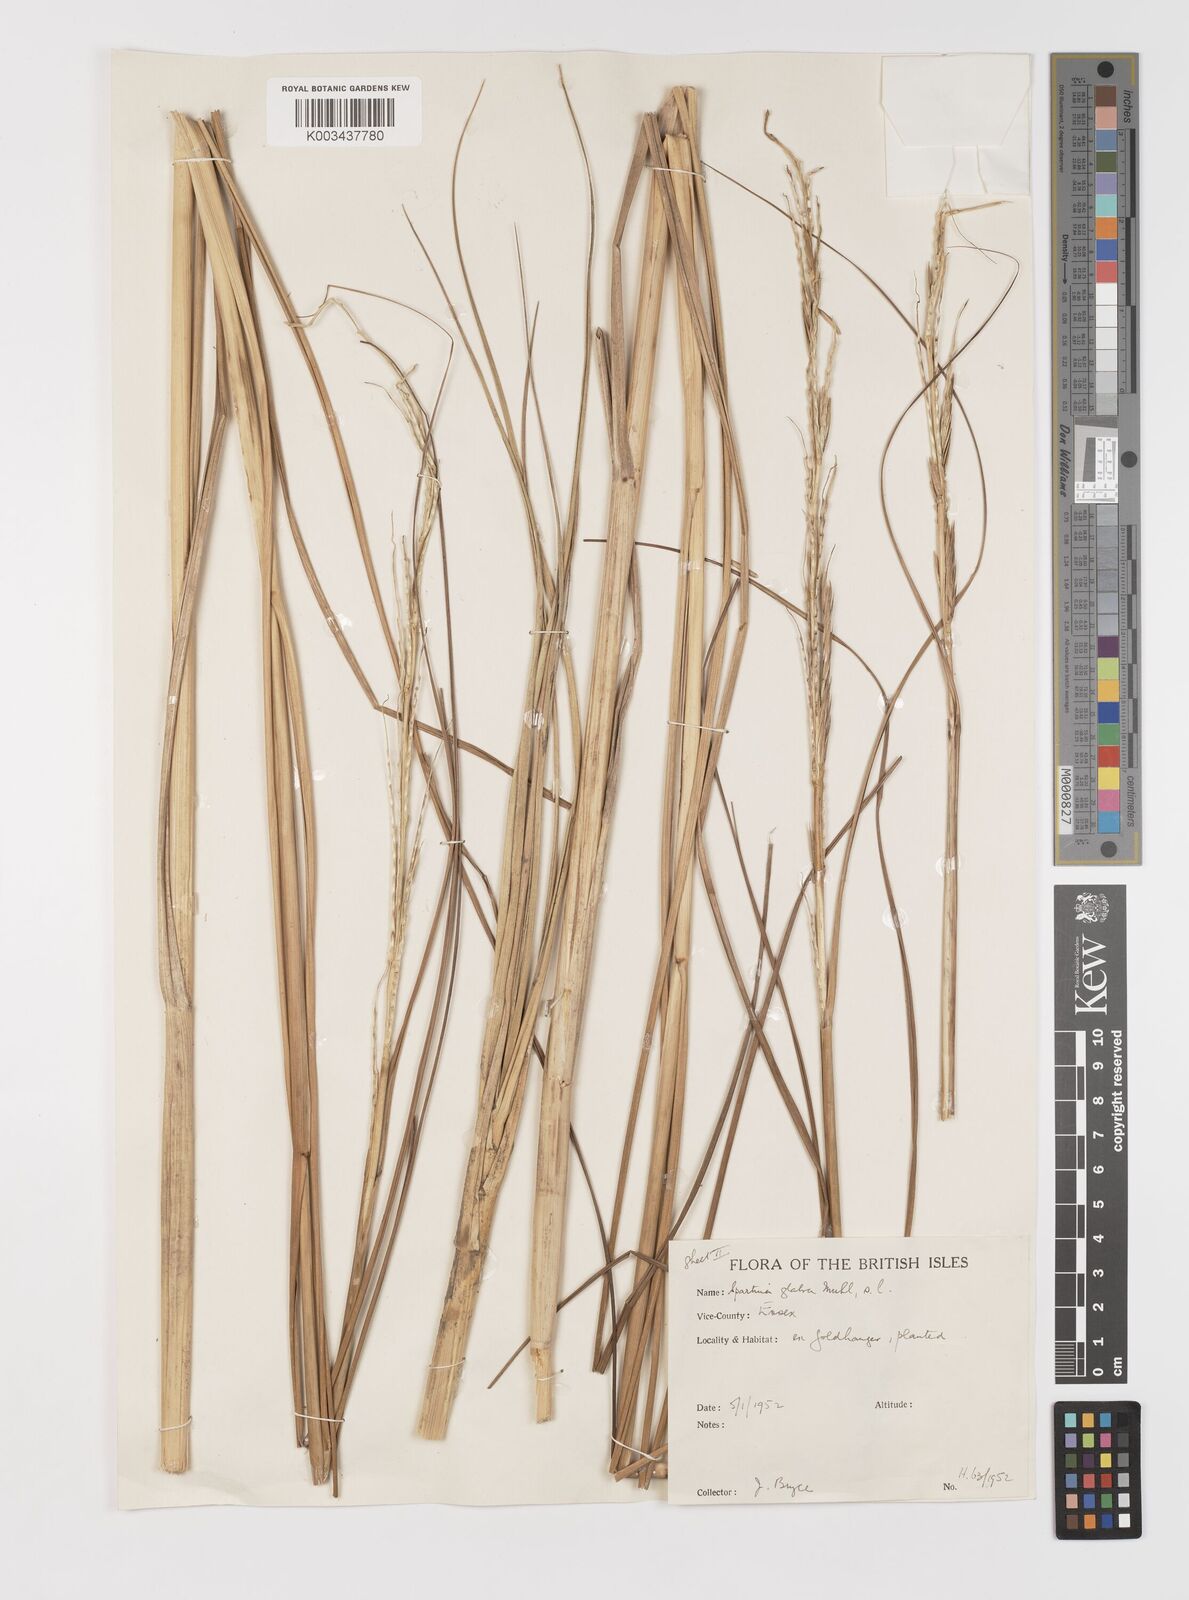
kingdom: Plantae
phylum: Tracheophyta
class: Liliopsida
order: Poales
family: Poaceae
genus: Sporobolus
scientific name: Sporobolus alterniflorus
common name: Atlantic cordgrass
